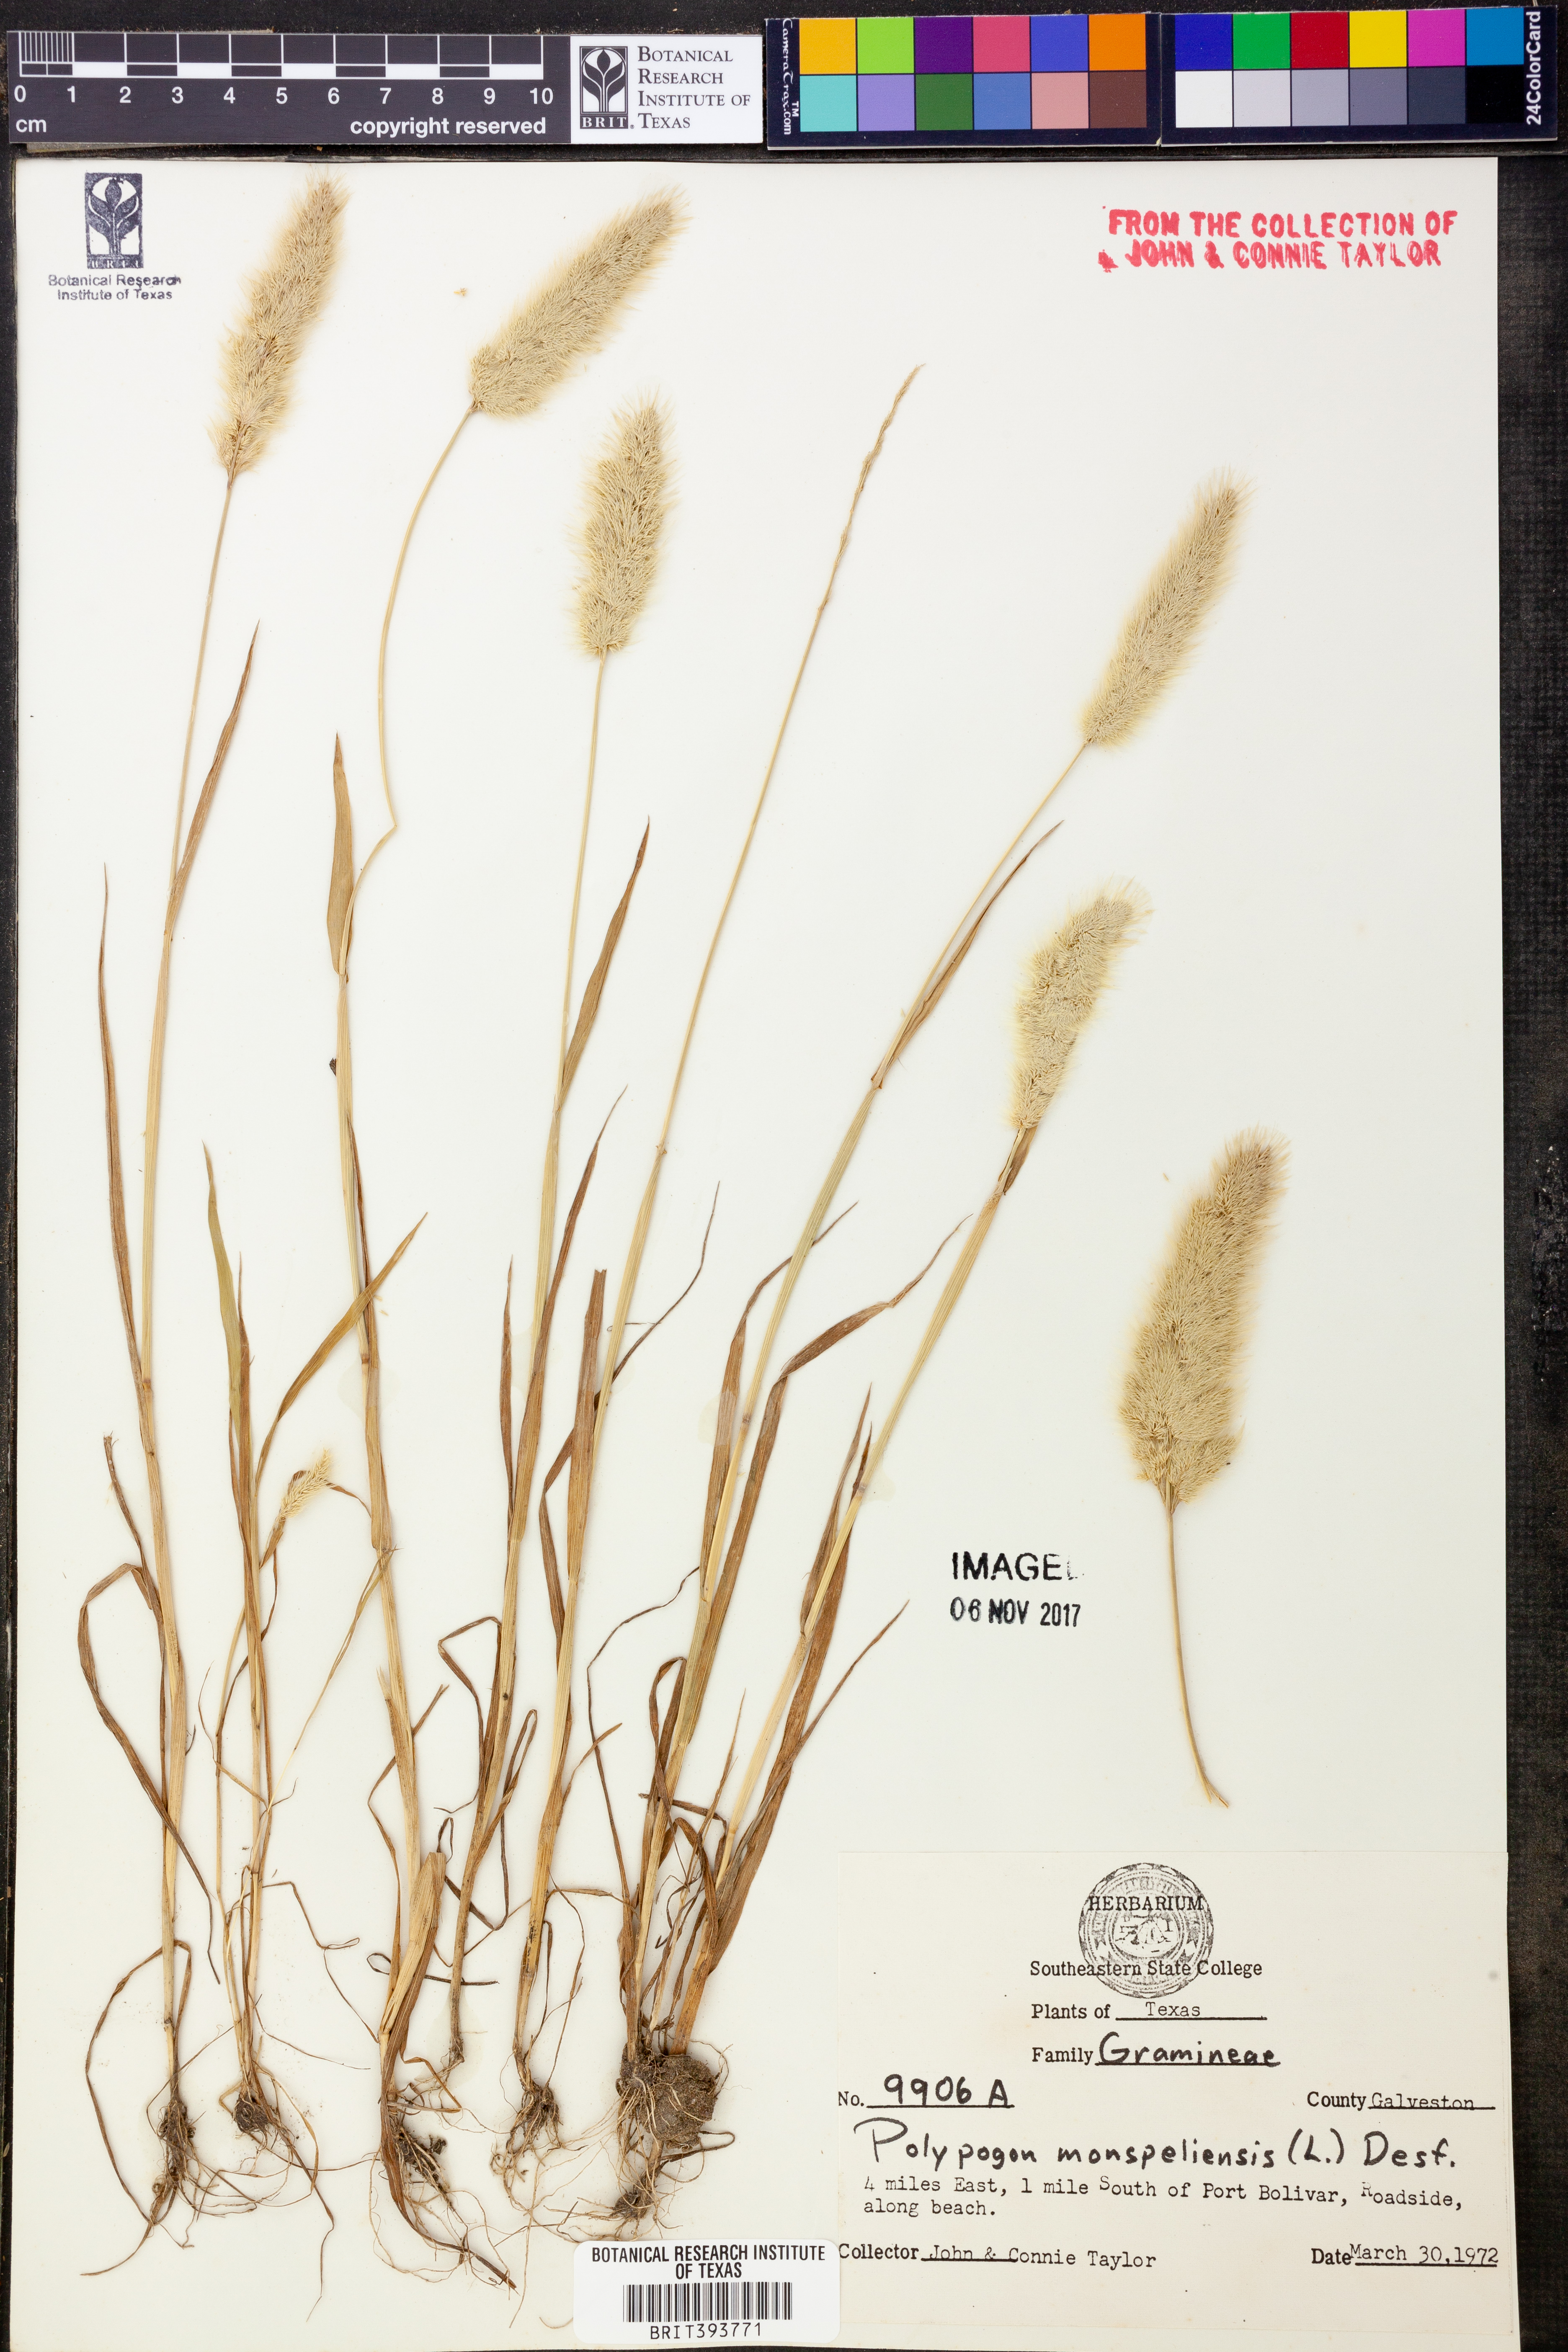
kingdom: Plantae
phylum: Tracheophyta
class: Liliopsida
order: Poales
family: Poaceae
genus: Polypogon
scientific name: Polypogon monspeliensis
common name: Annual rabbitsfoot grass
